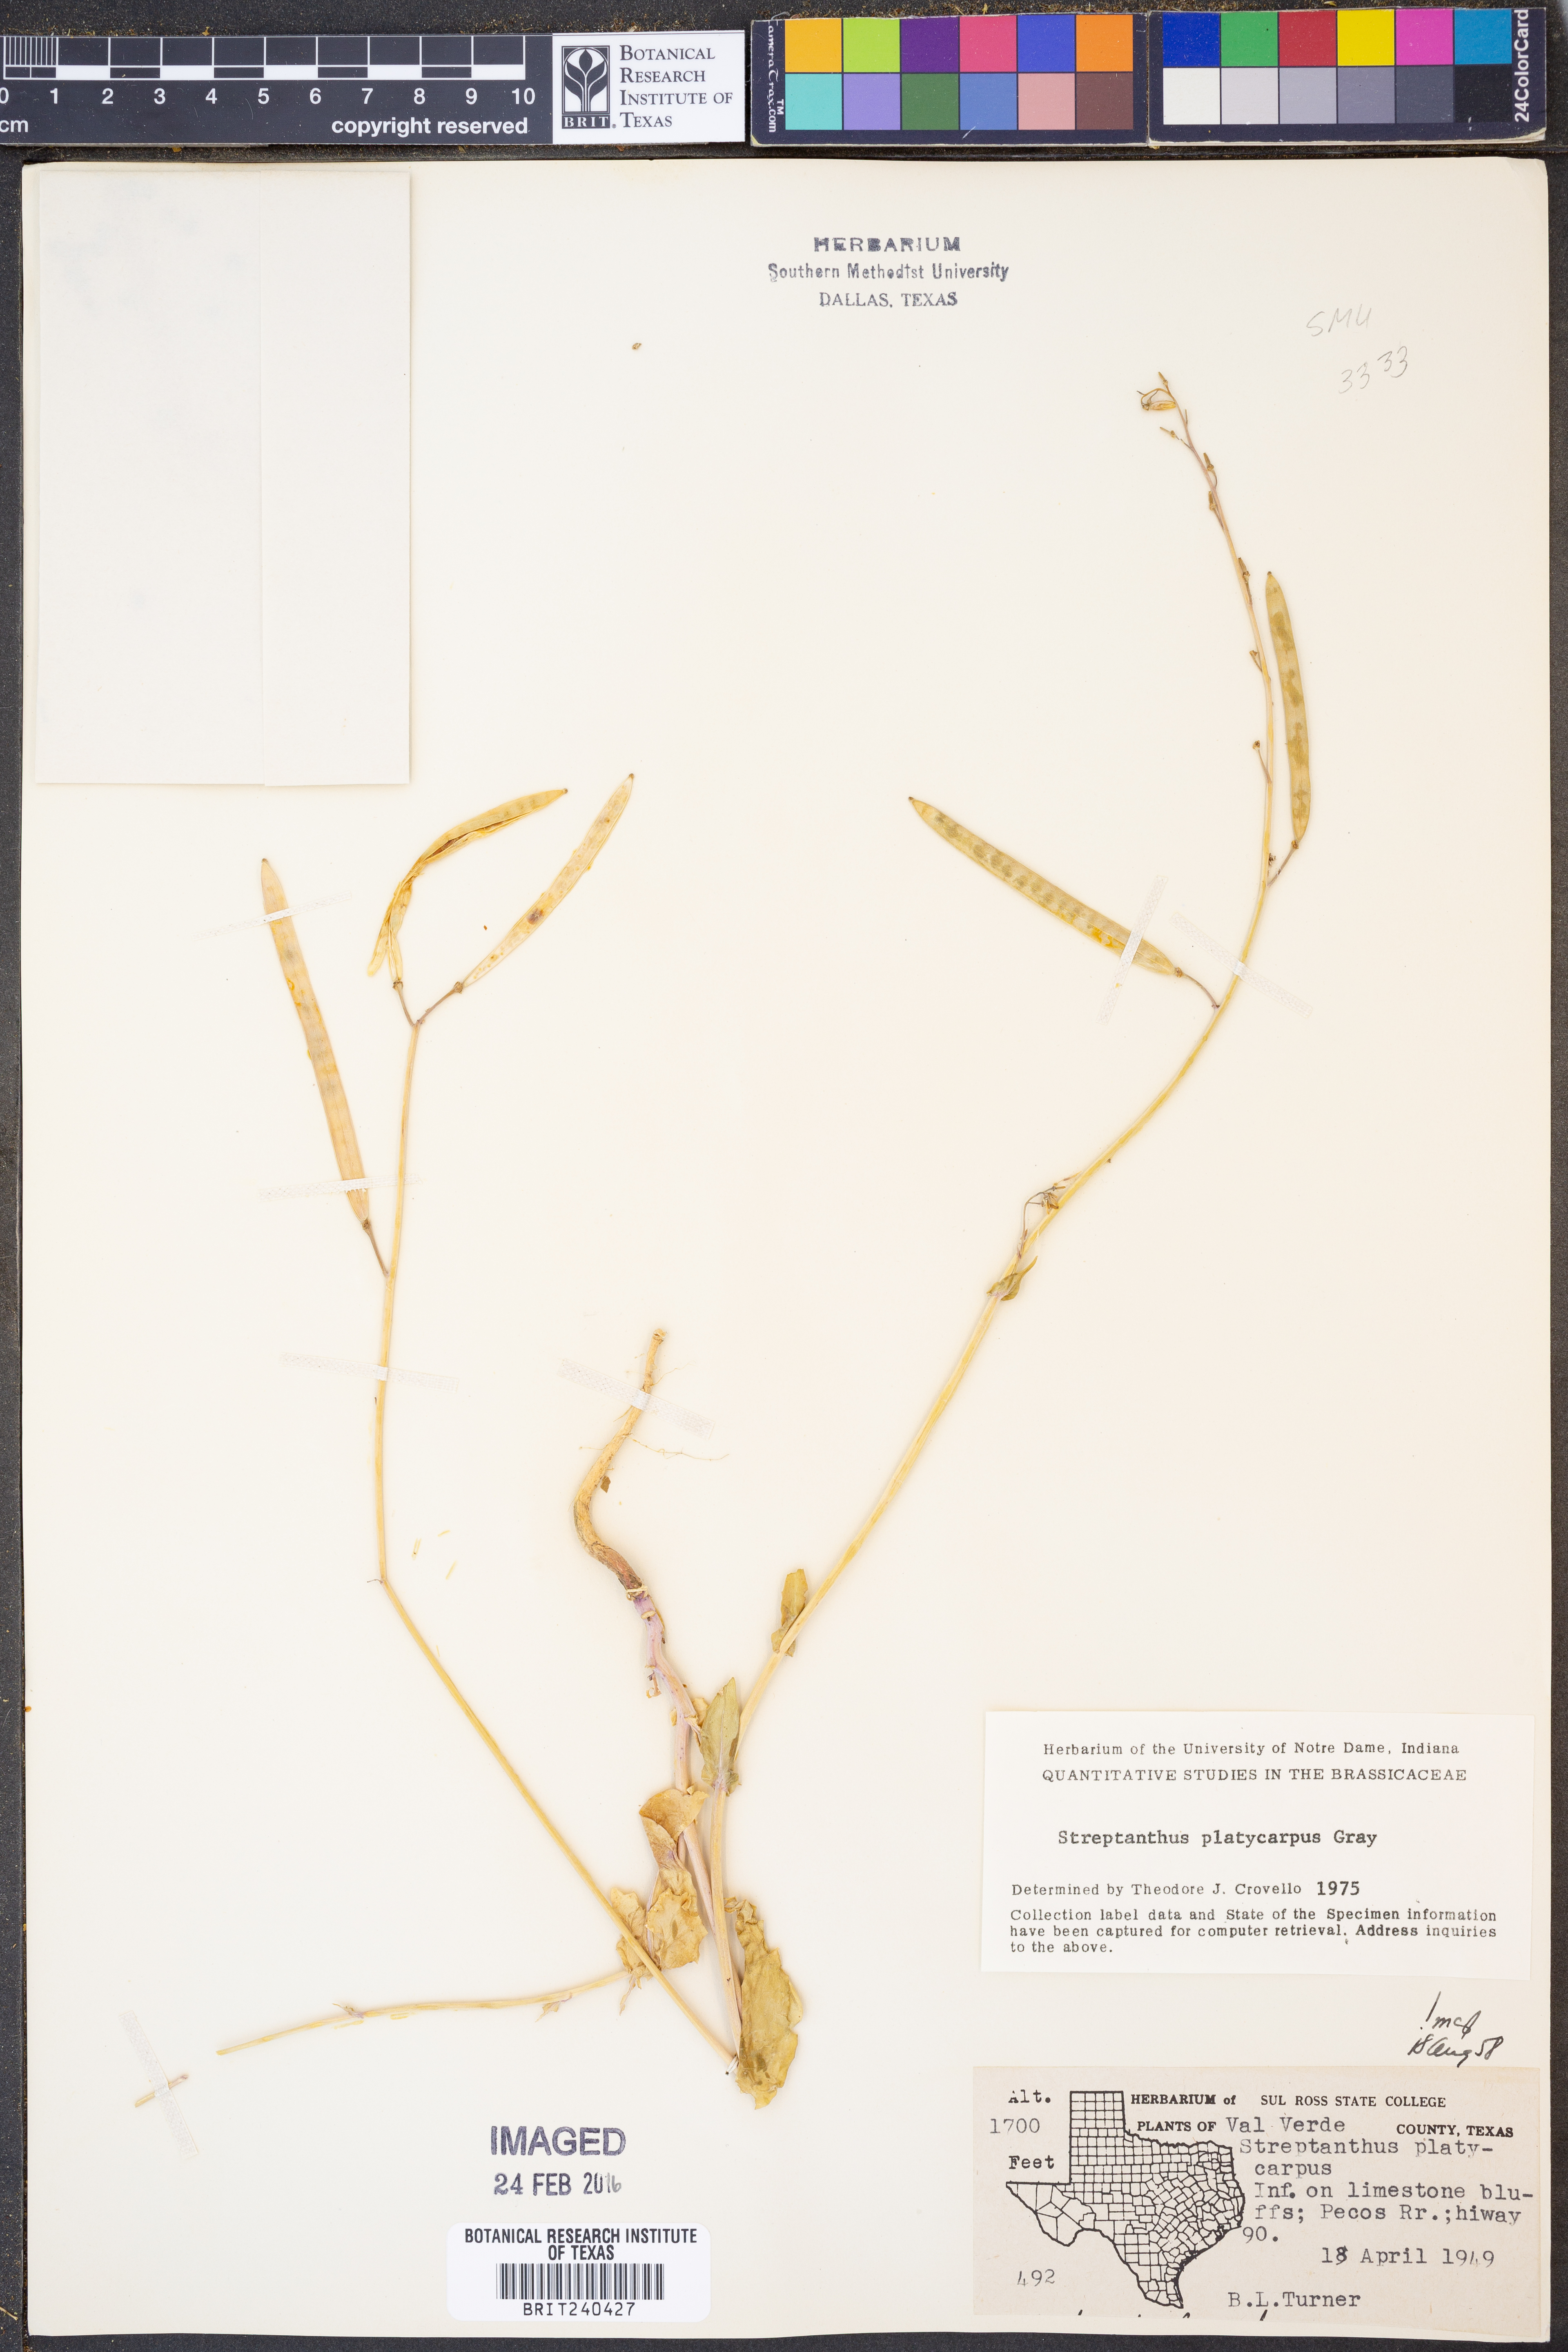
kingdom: Plantae
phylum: Tracheophyta
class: Magnoliopsida
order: Brassicales
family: Brassicaceae
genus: Streptanthus
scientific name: Streptanthus platycarpus
